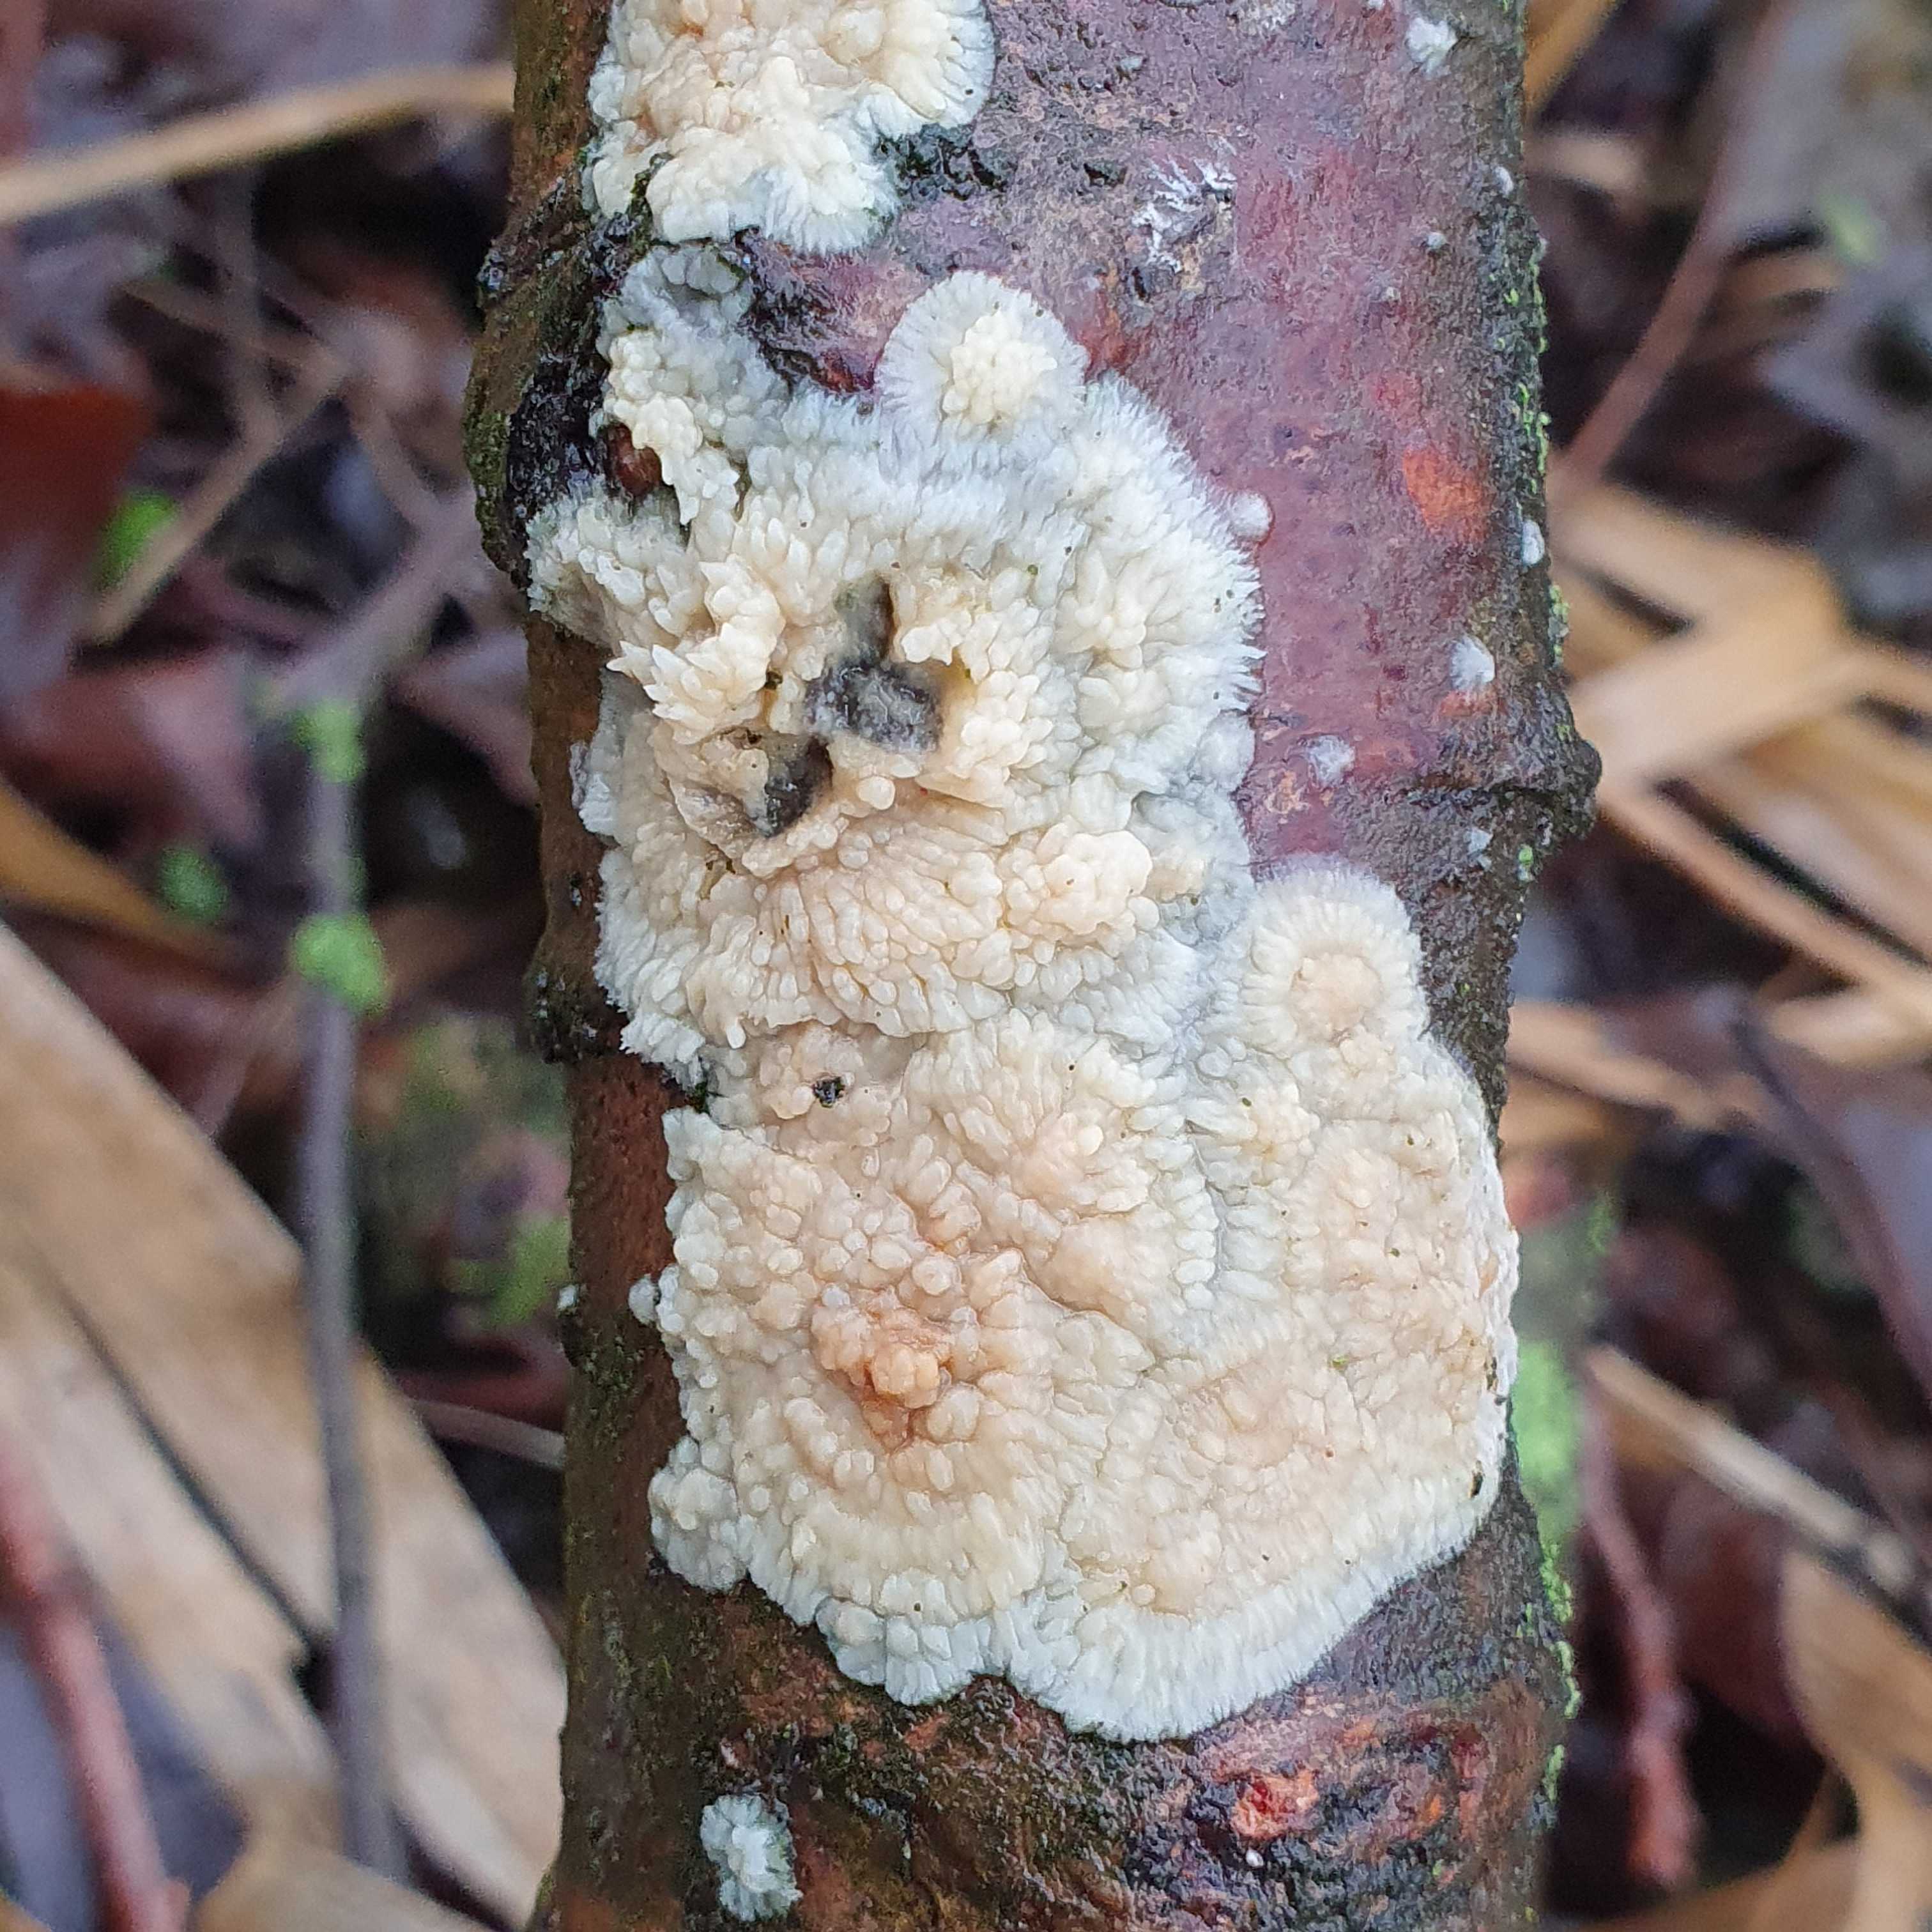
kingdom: Fungi
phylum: Basidiomycota
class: Agaricomycetes
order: Polyporales
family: Meruliaceae
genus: Phlebia
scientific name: Phlebia radiata
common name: stråle-åresvamp
